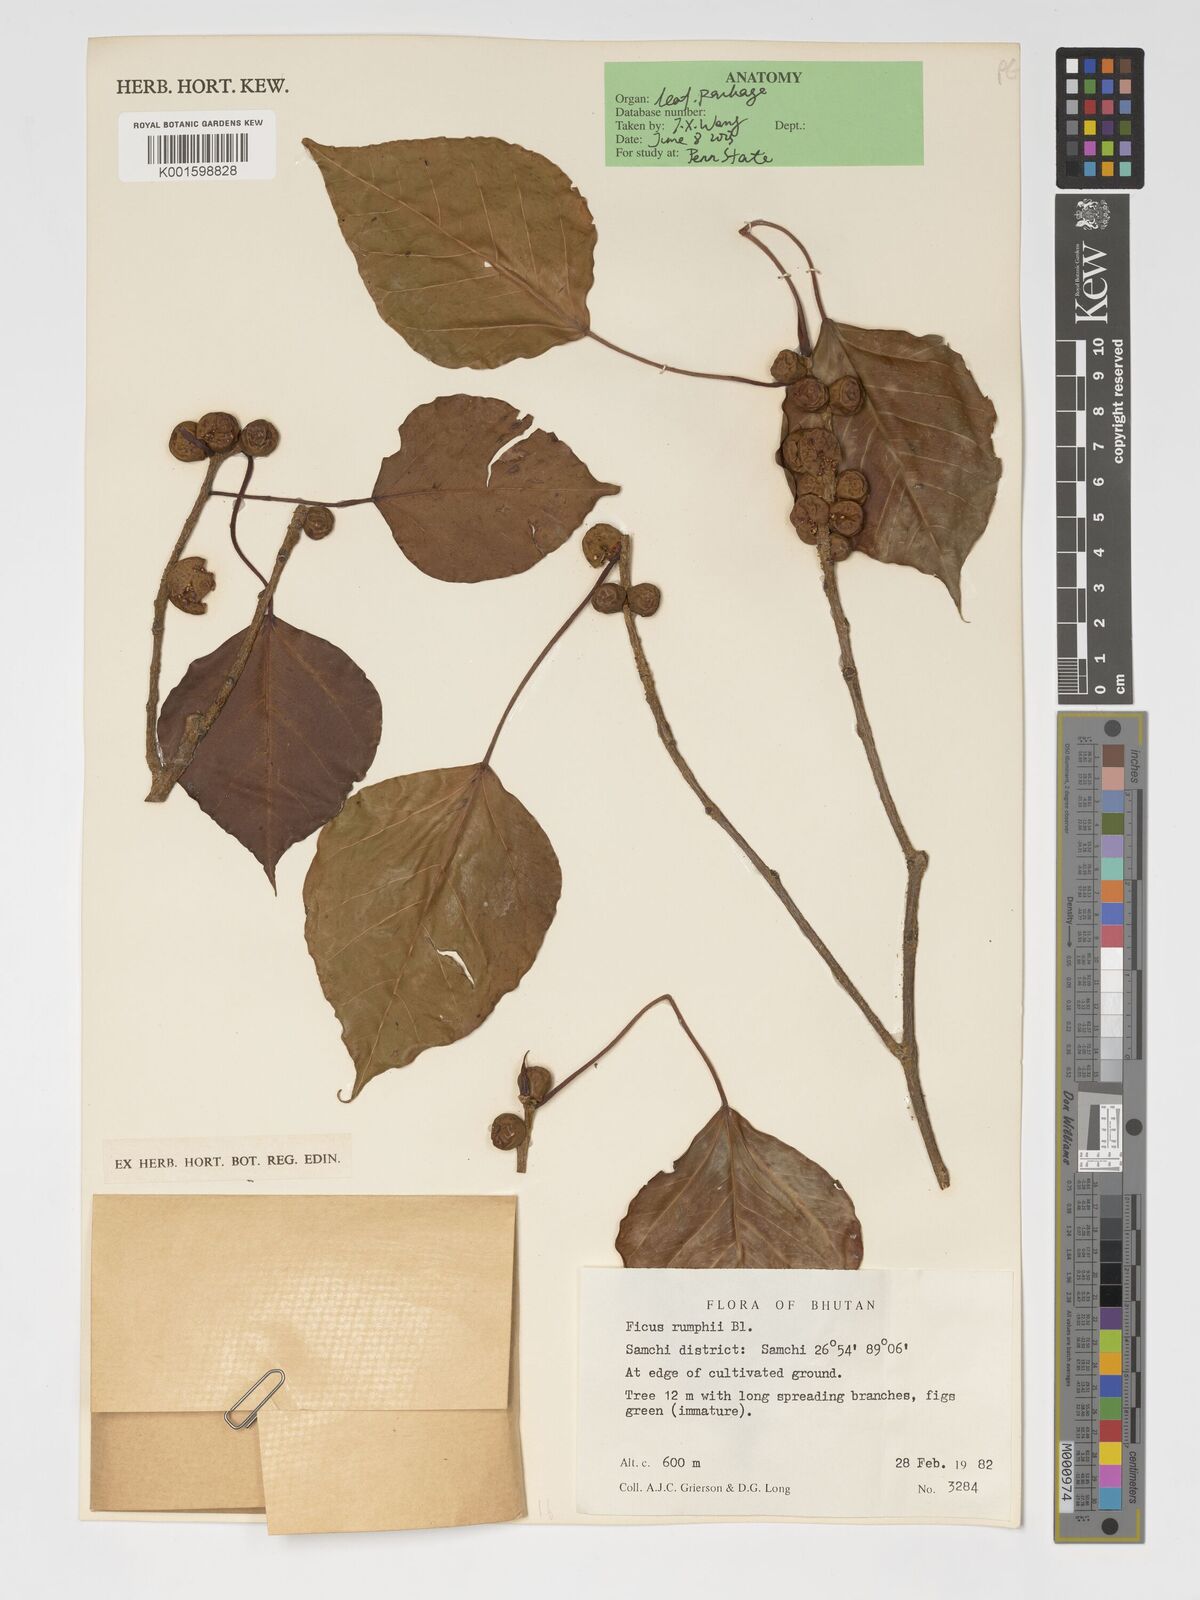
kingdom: Plantae
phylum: Tracheophyta
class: Magnoliopsida
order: Rosales
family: Moraceae
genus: Ficus
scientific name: Ficus rumphii
